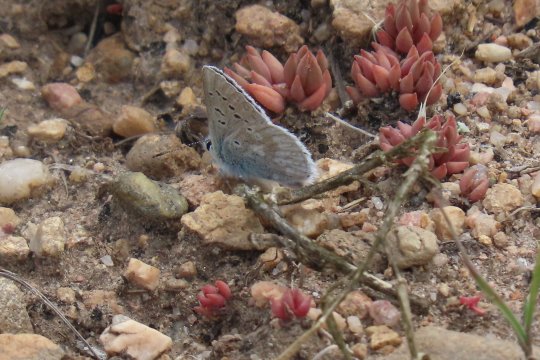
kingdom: Animalia
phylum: Arthropoda
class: Insecta
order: Lepidoptera
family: Lycaenidae
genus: Agriades
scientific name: Agriades glandon
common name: Arctic Blue
